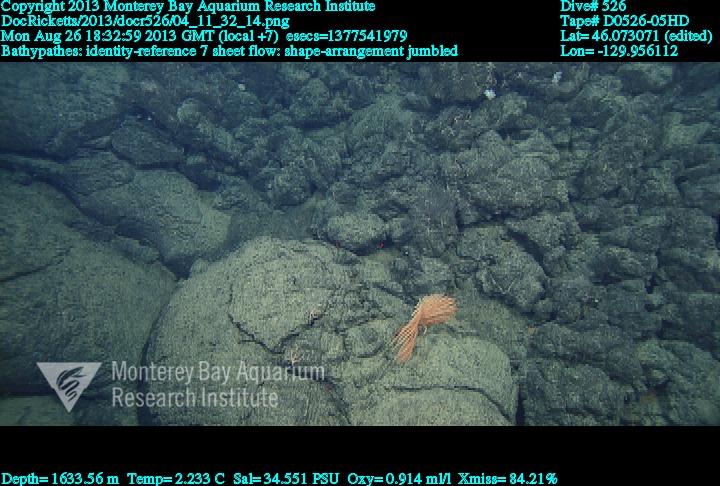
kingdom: Animalia
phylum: Cnidaria
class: Anthozoa
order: Antipatharia
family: Schizopathidae
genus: Bathypathes
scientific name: Bathypathes
